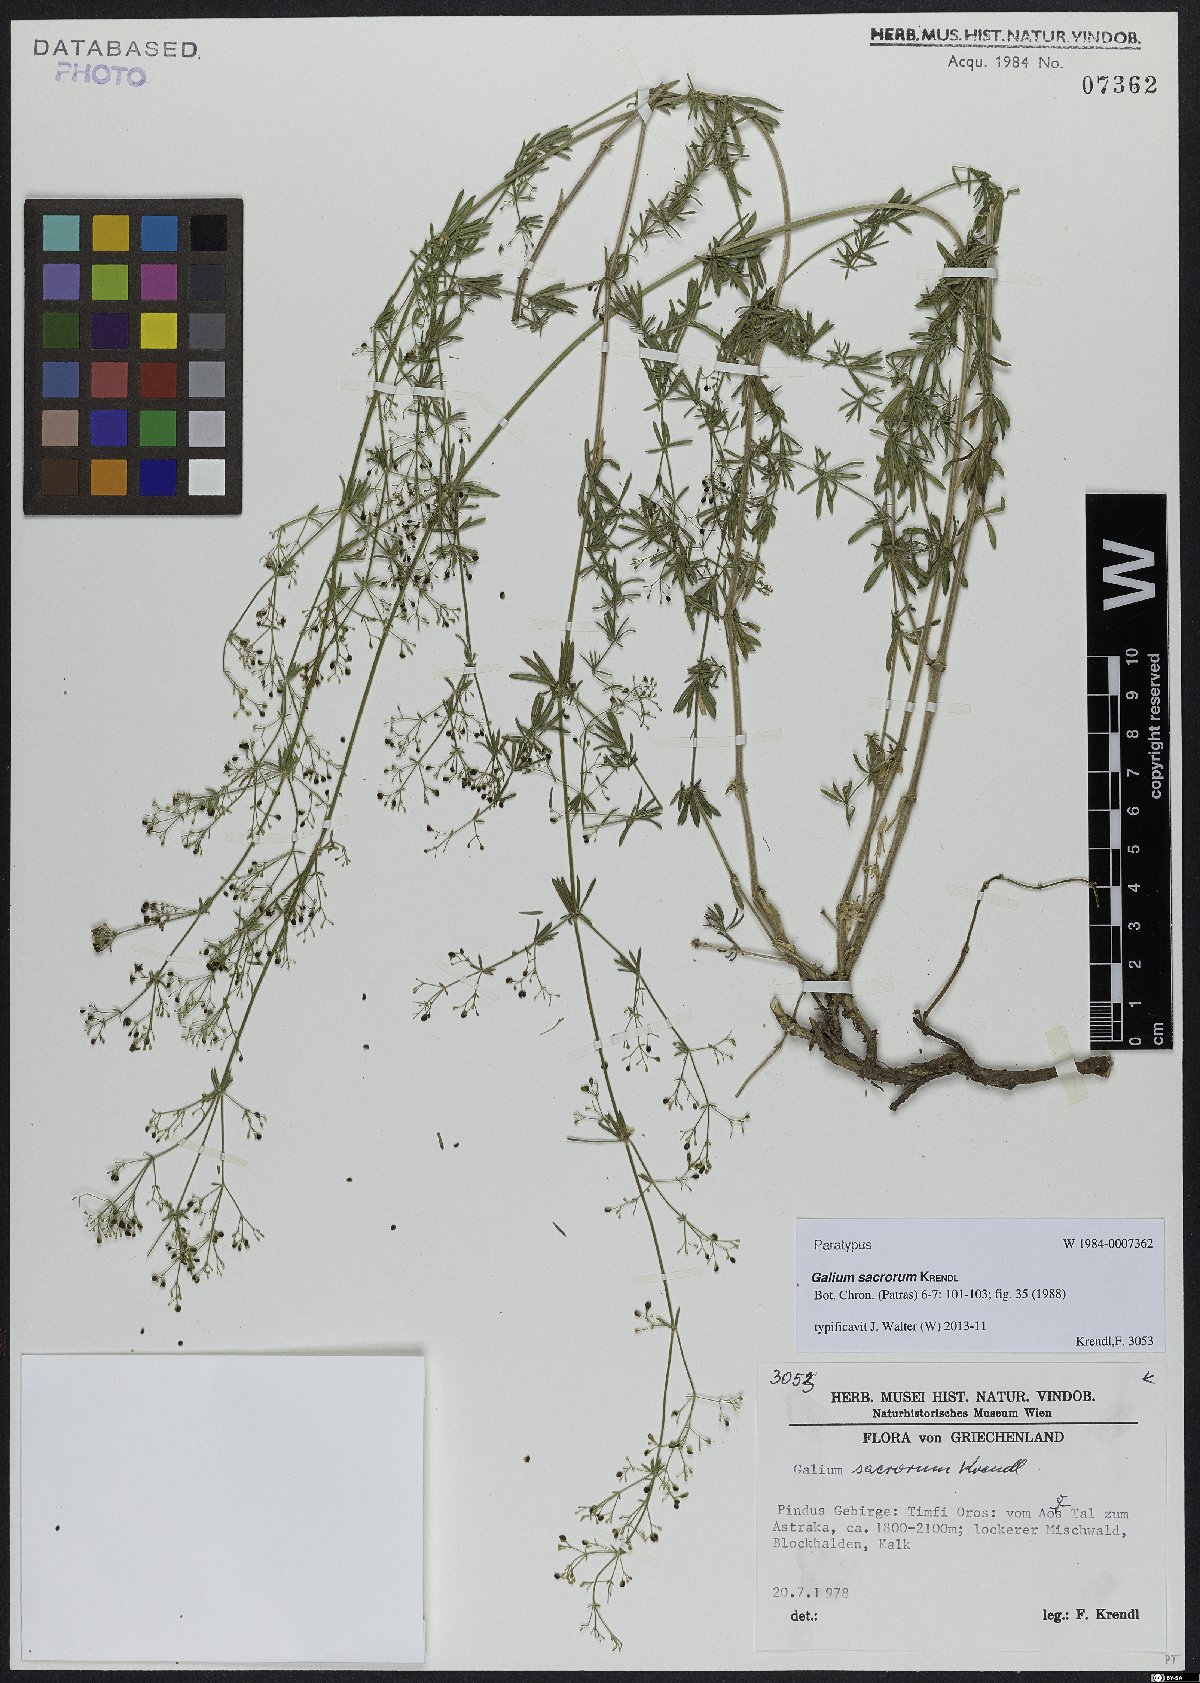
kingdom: Plantae
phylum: Tracheophyta
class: Magnoliopsida
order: Gentianales
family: Rubiaceae
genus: Galium
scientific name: Galium monasterium
